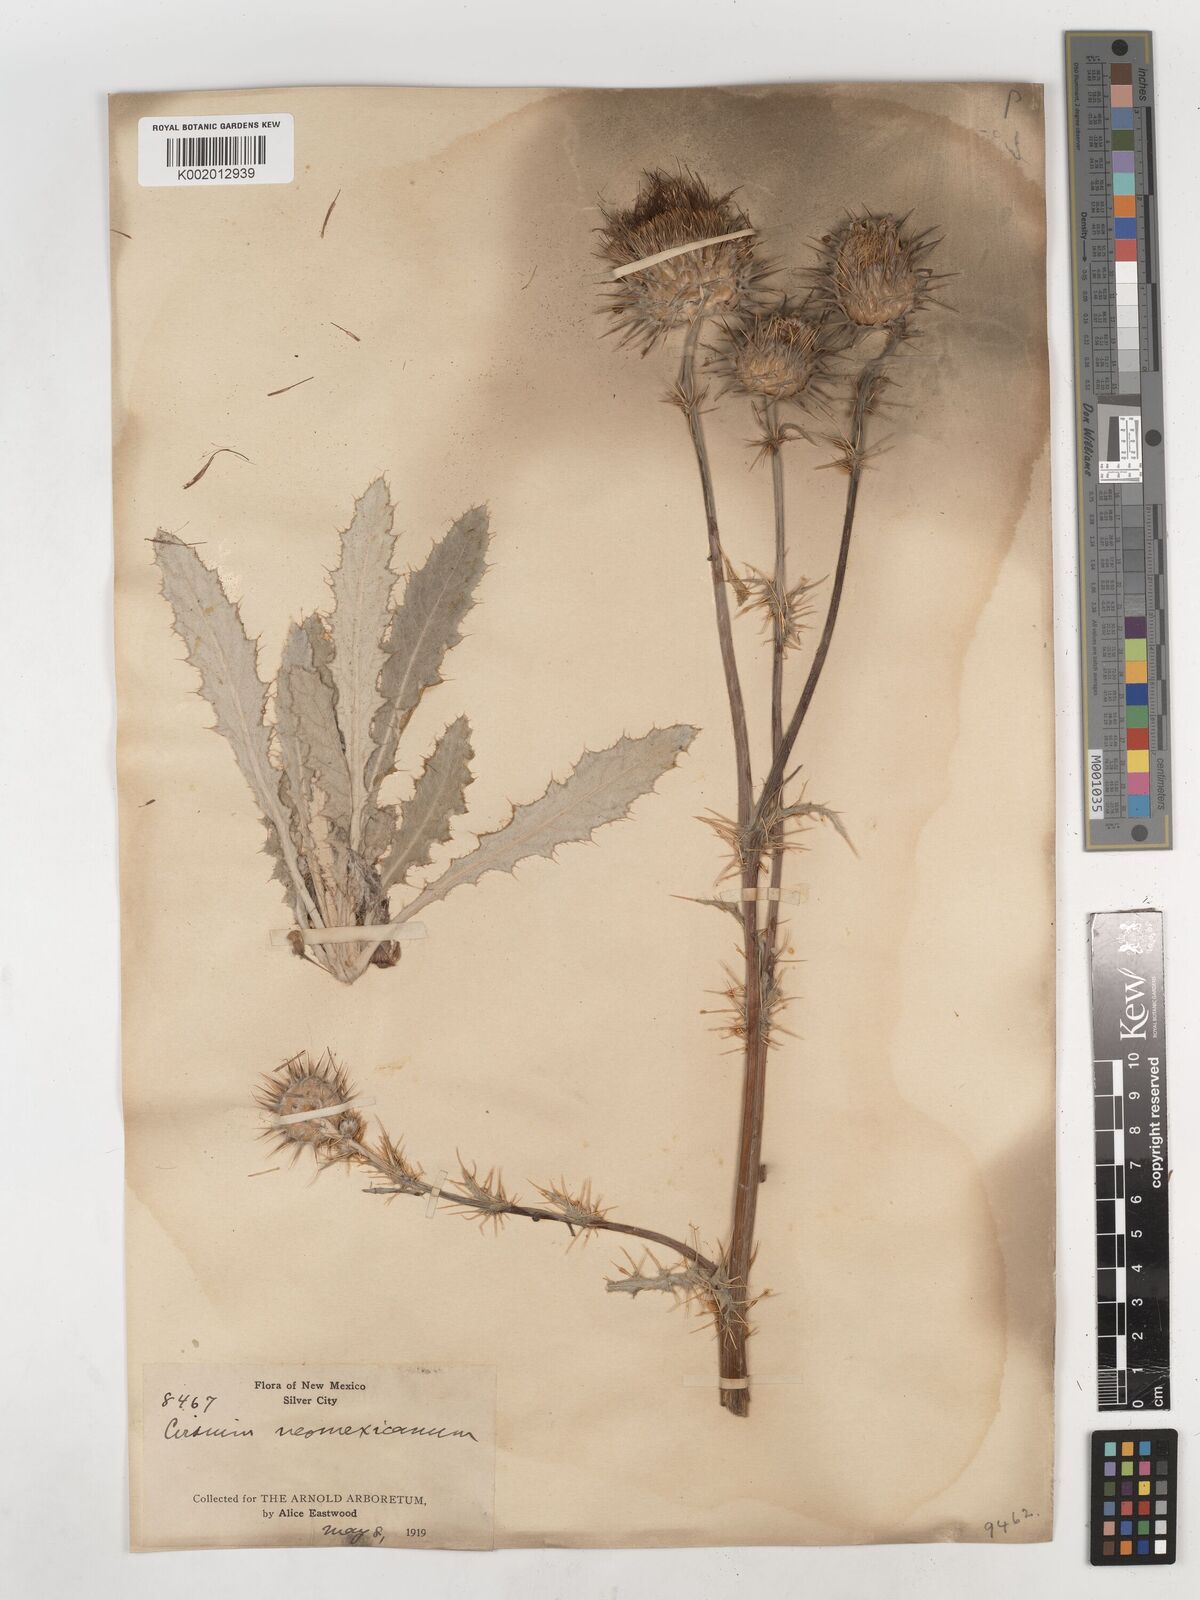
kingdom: Plantae
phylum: Tracheophyta
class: Magnoliopsida
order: Asterales
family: Asteraceae
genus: Cirsium
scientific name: Cirsium neomexicanum
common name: New mexico thistle
